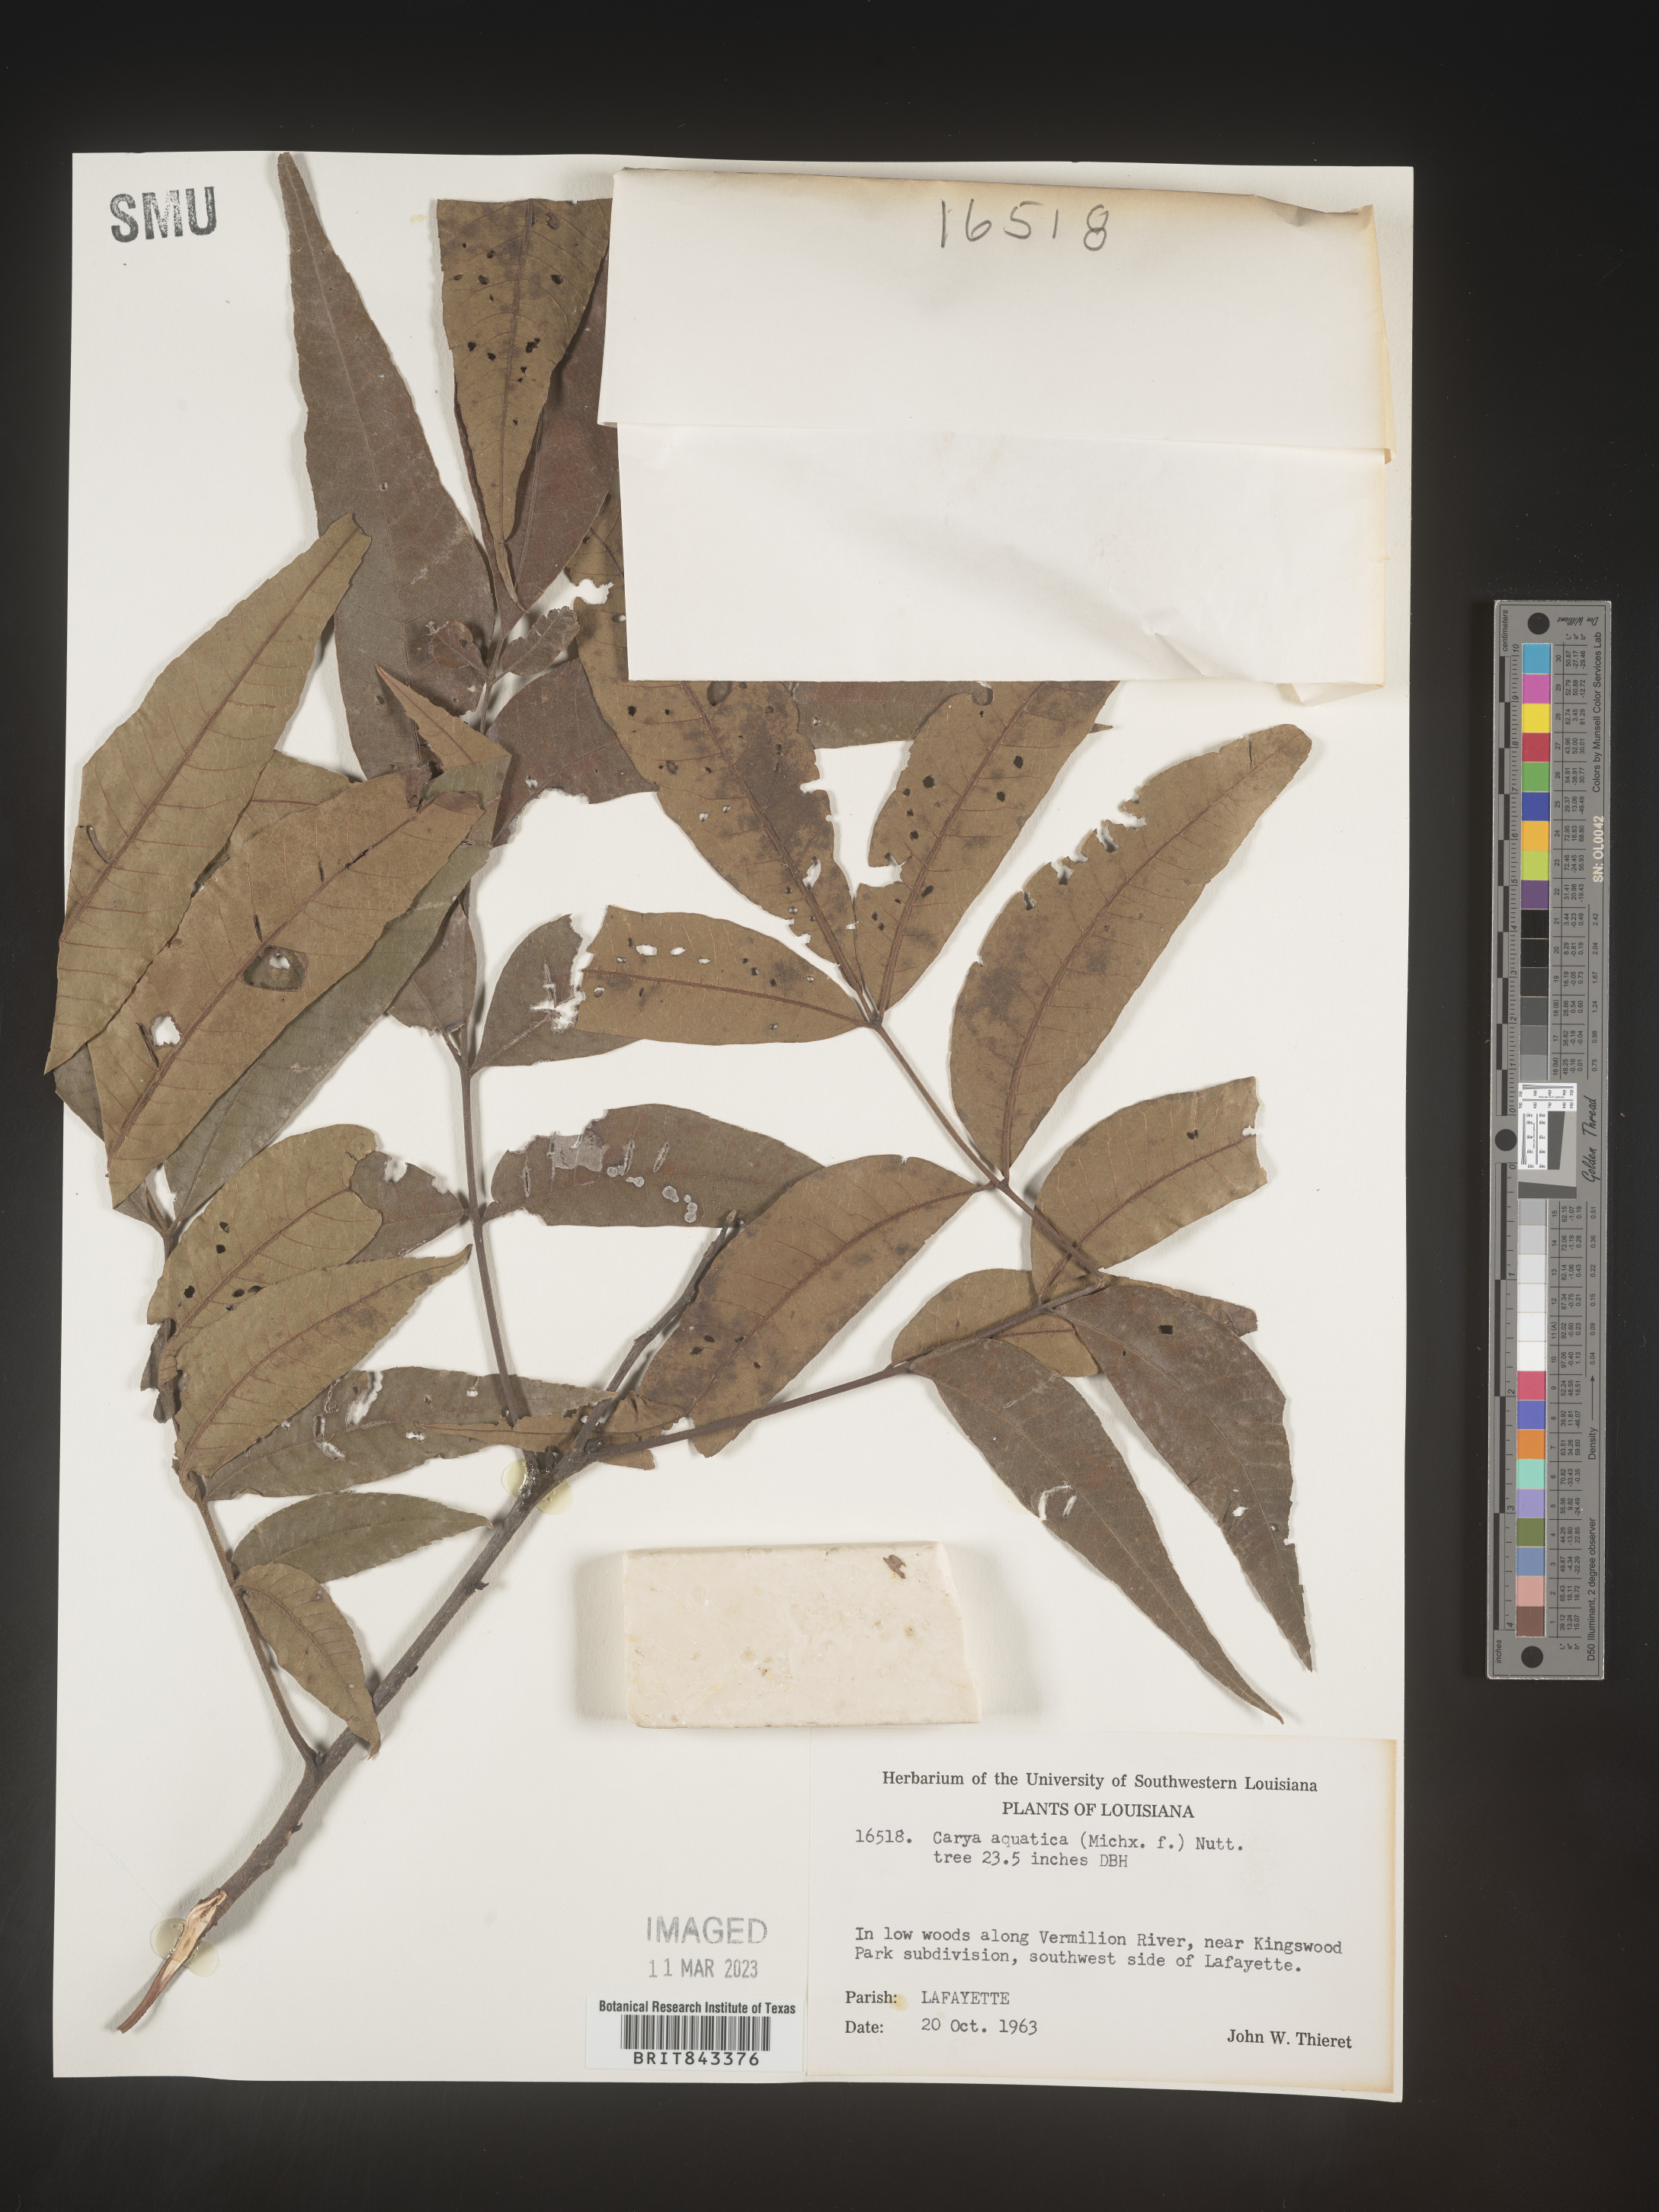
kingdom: Plantae
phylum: Tracheophyta
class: Magnoliopsida
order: Fagales
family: Juglandaceae
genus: Carya
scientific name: Carya aquatica
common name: Water hickory
